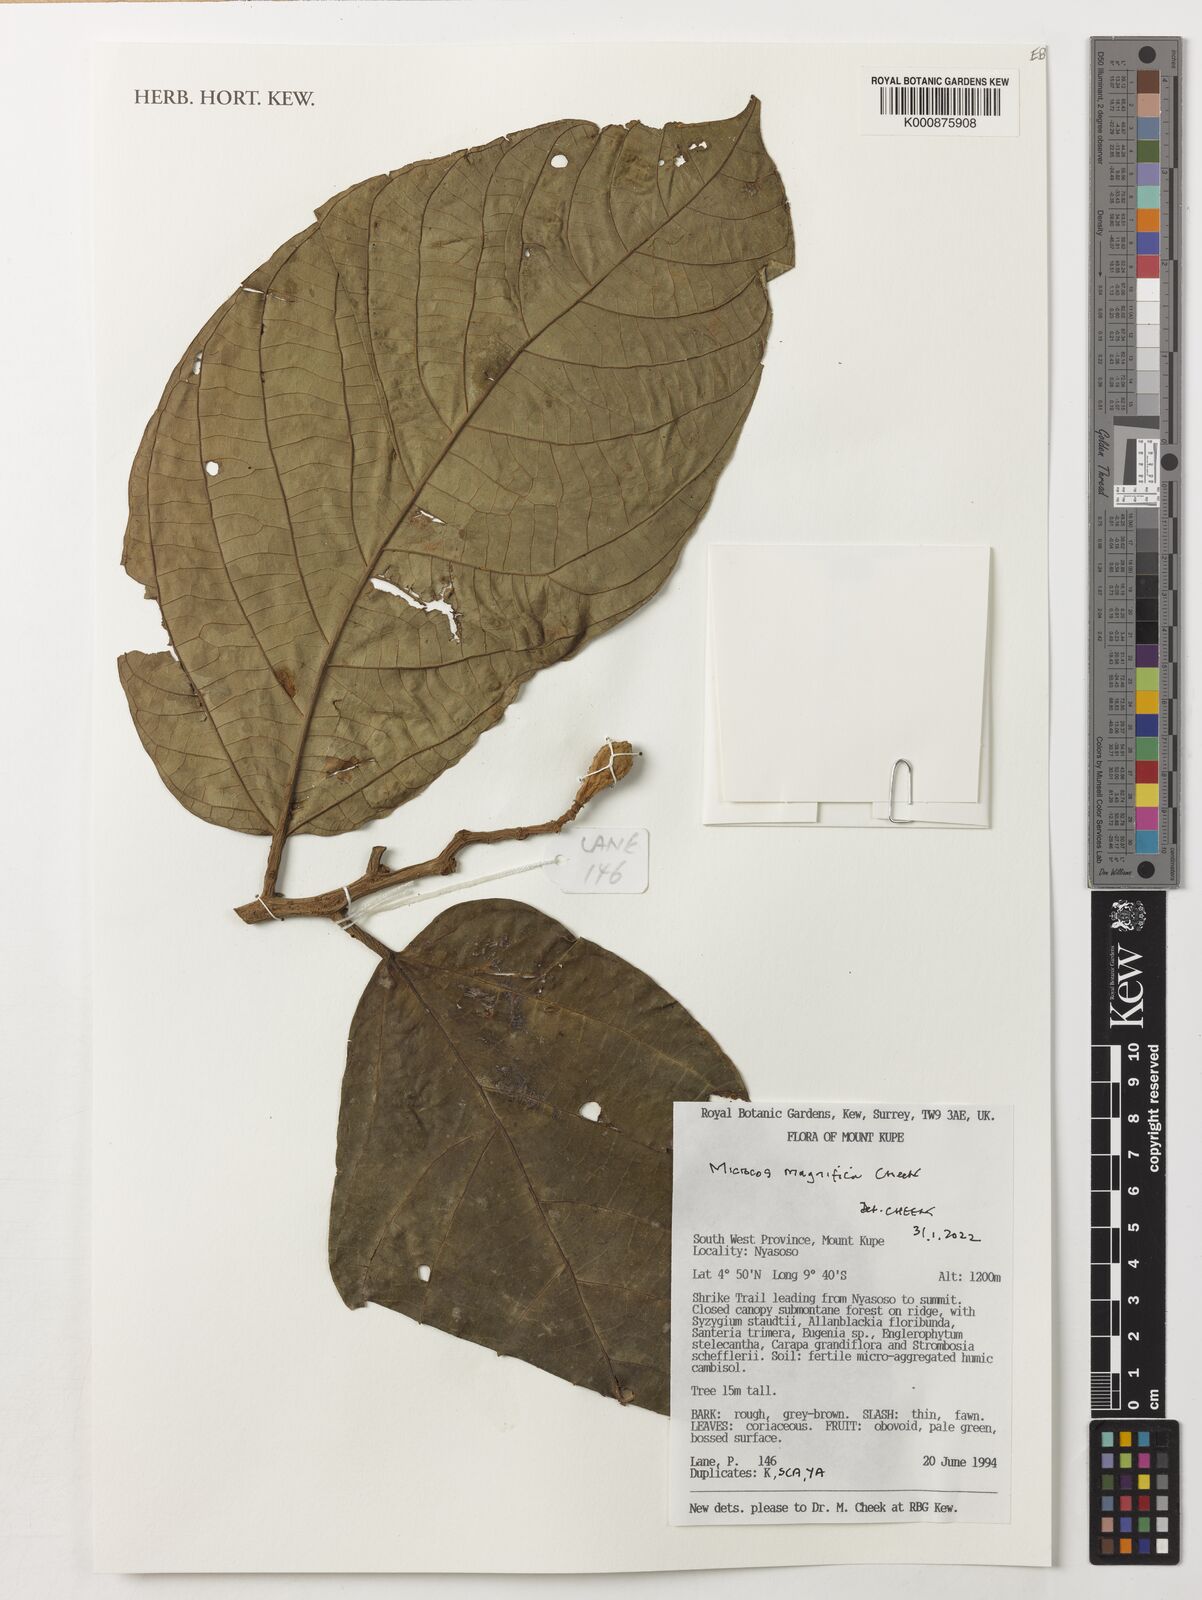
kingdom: Plantae
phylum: Tracheophyta
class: Magnoliopsida
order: Malvales
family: Malvaceae
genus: Microcos
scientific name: Microcos
